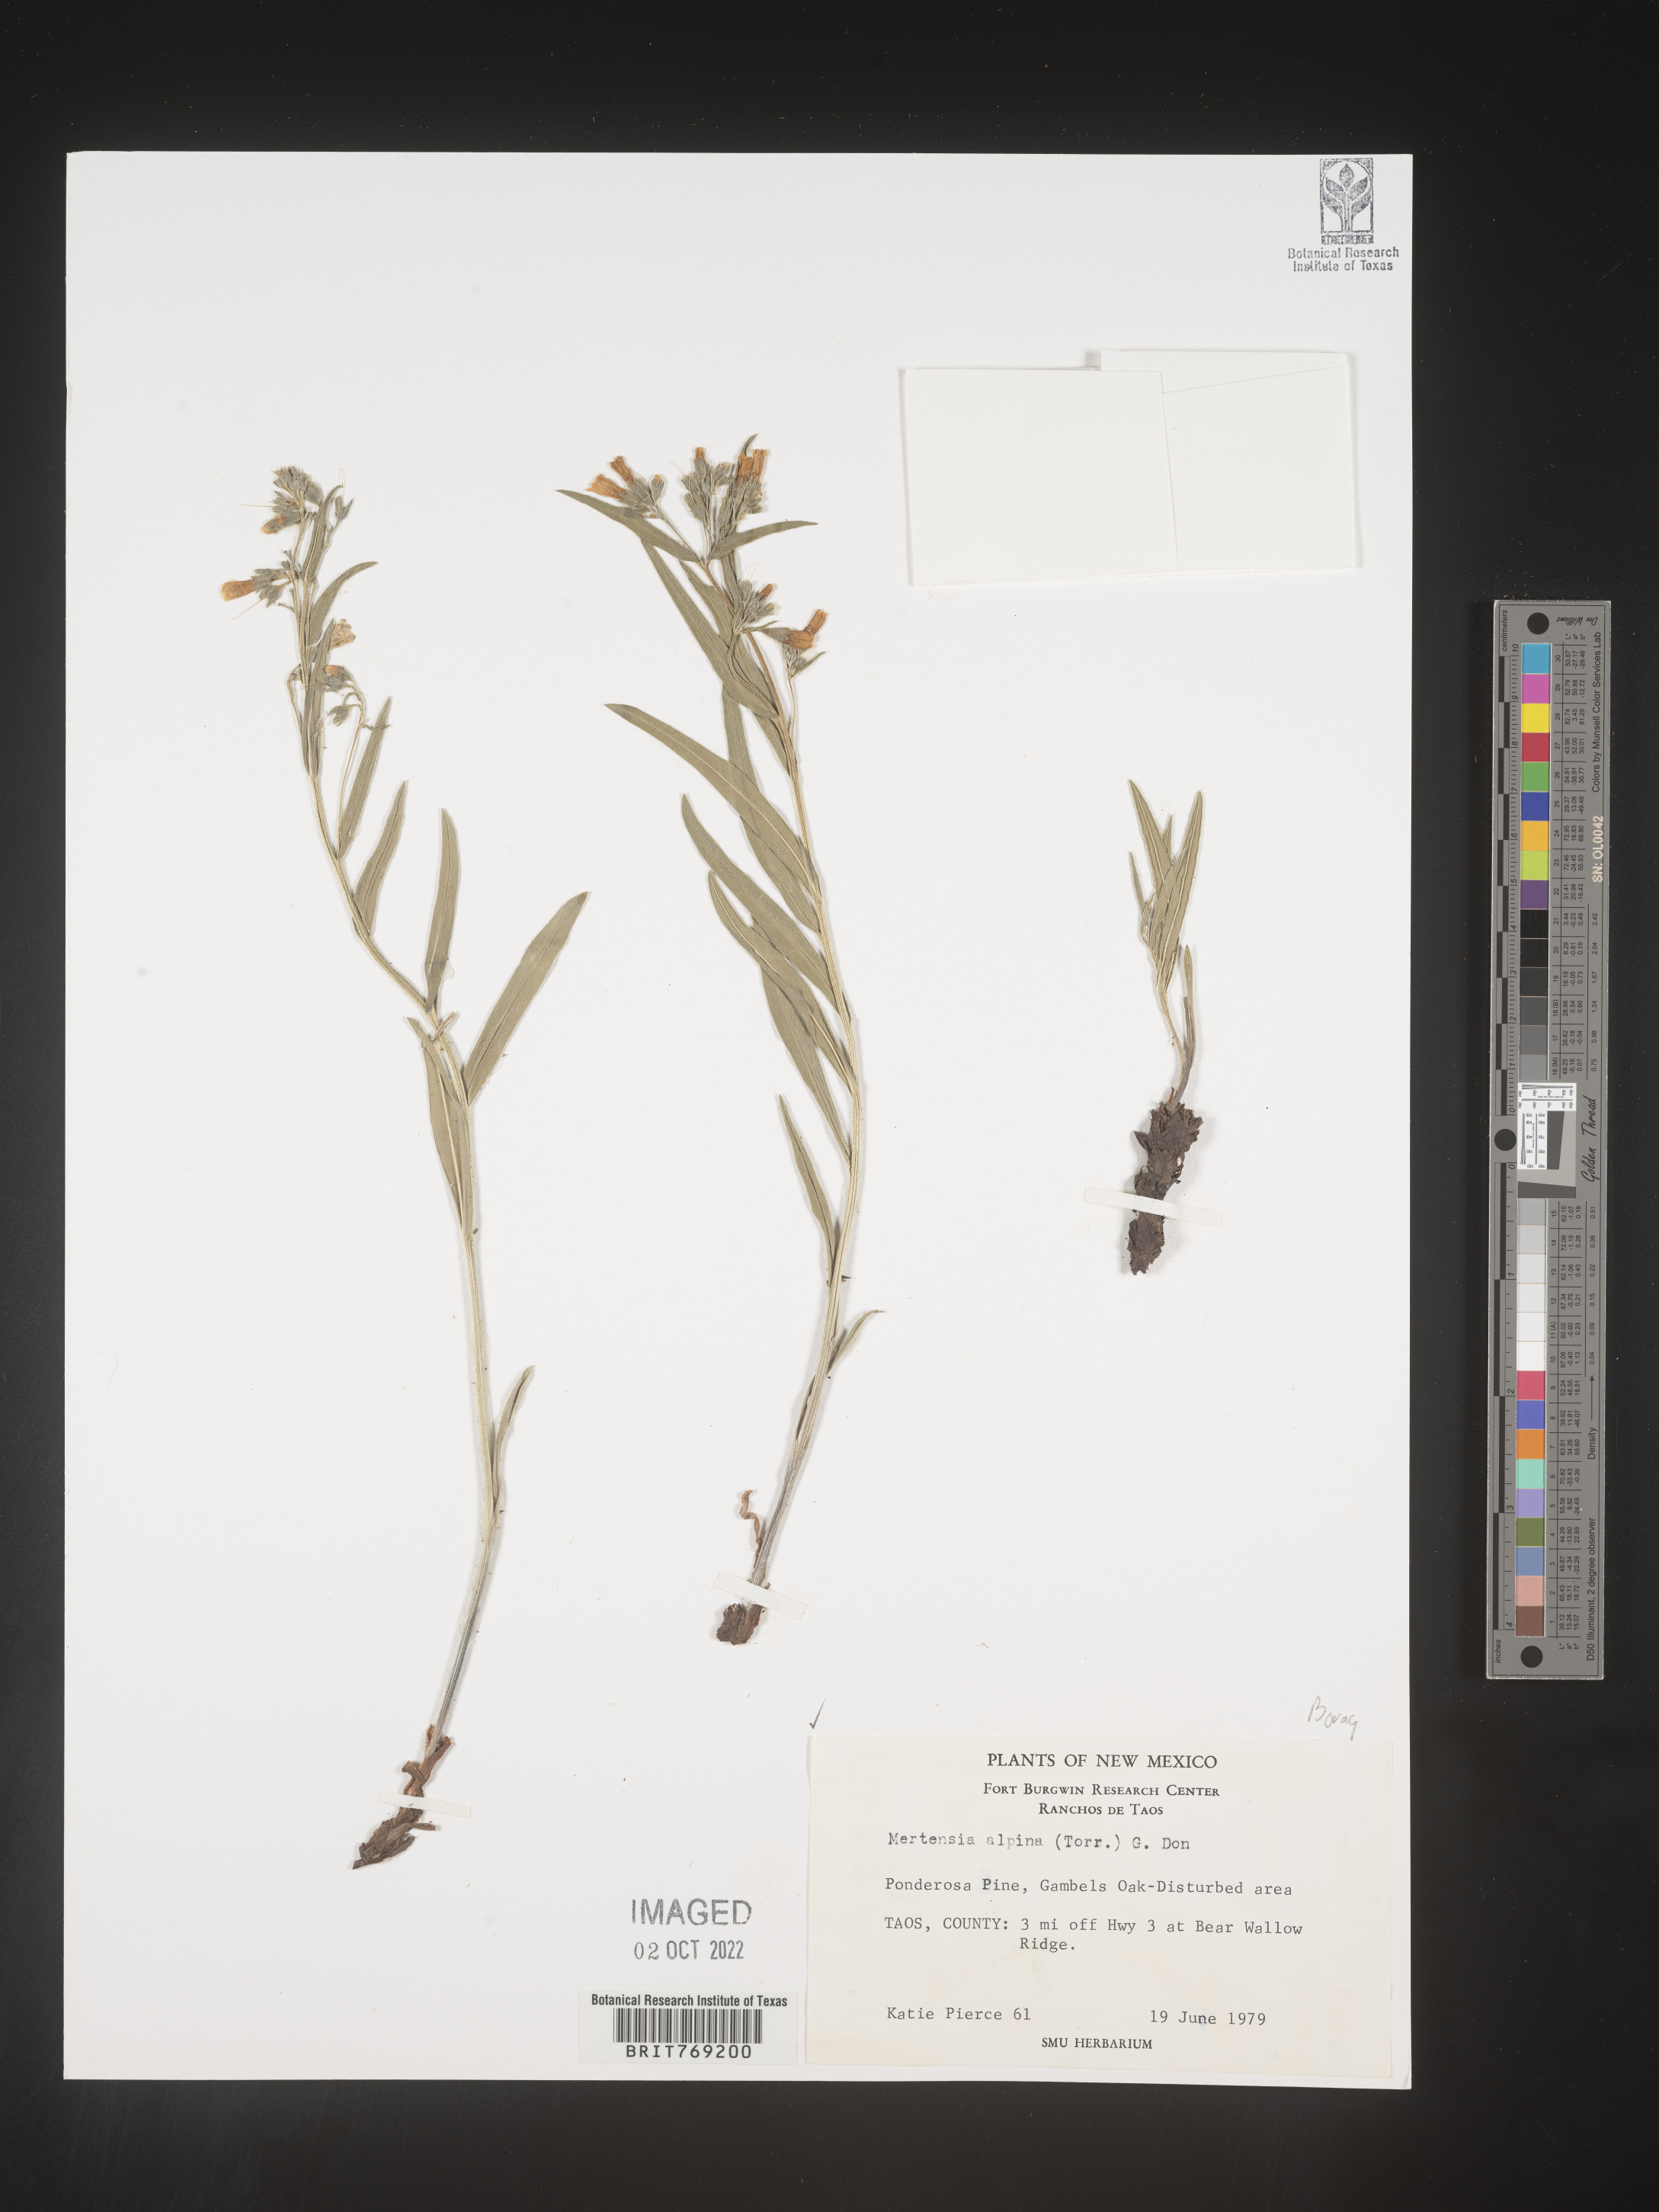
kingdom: Plantae
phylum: Tracheophyta
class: Magnoliopsida
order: Boraginales
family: Boraginaceae
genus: Mertensia
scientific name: Mertensia
